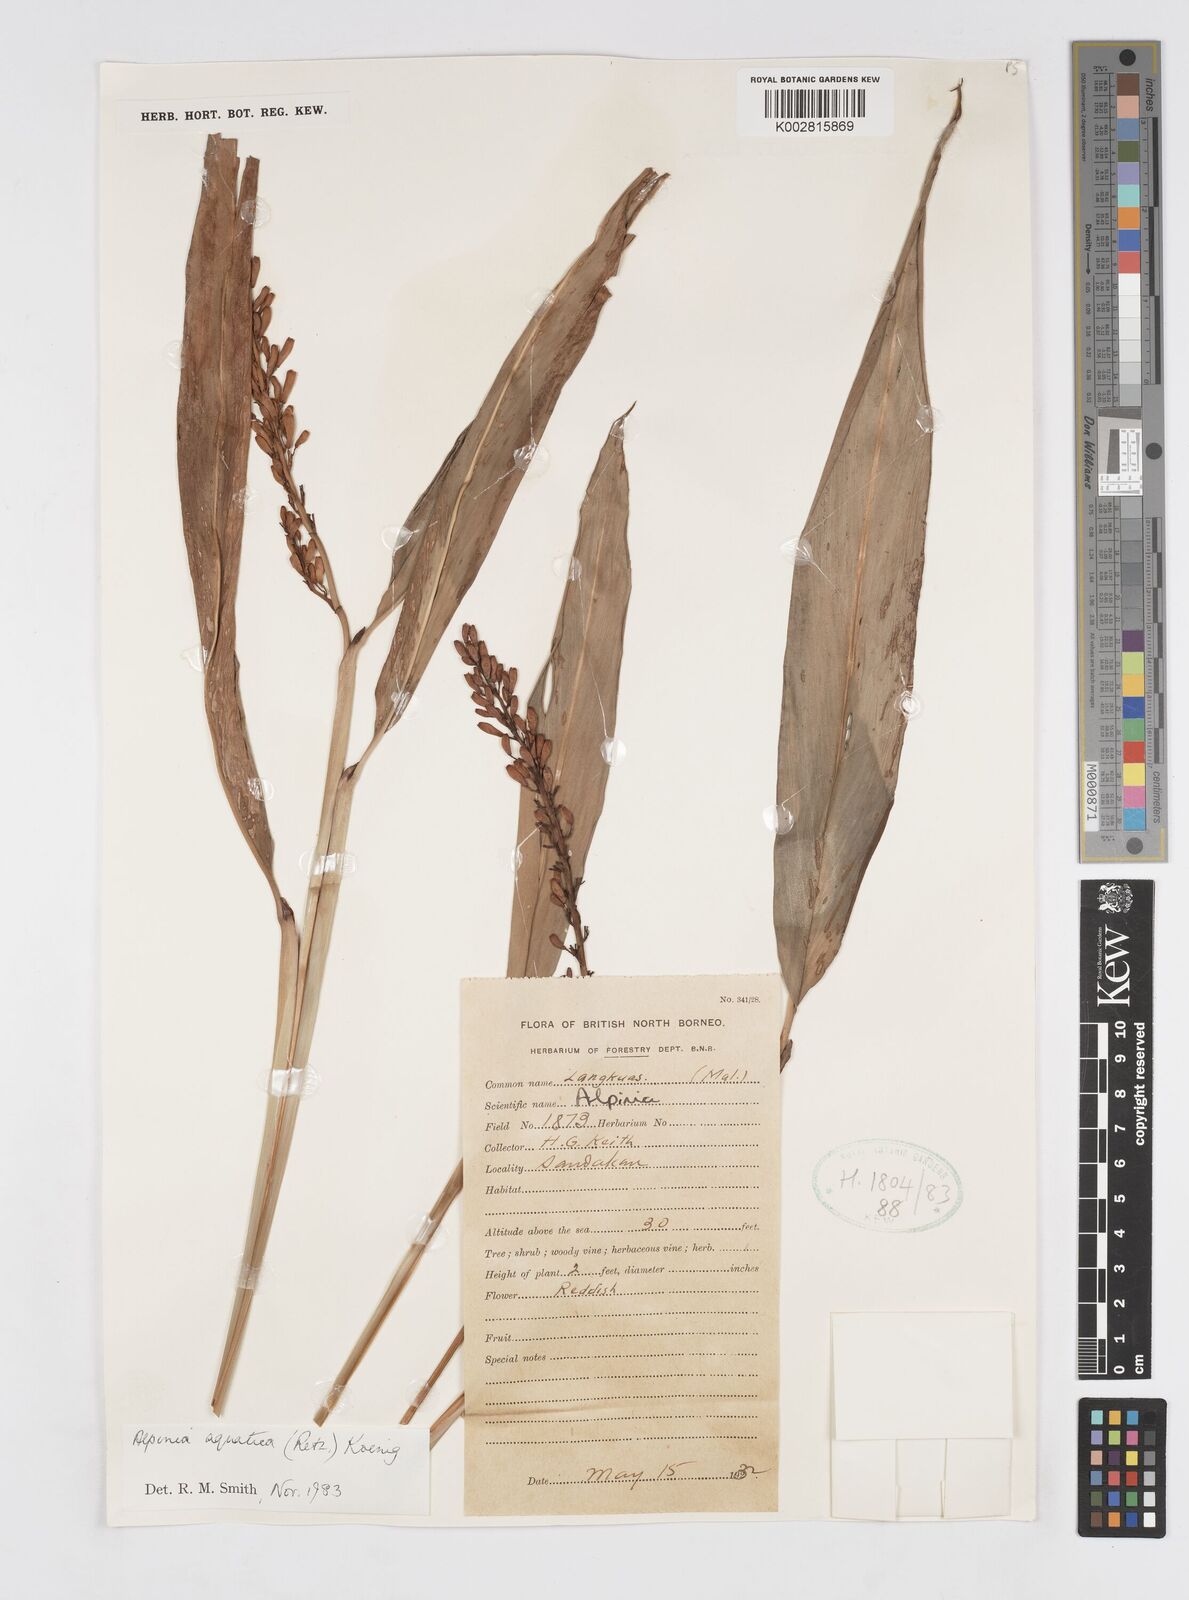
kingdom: Plantae
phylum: Tracheophyta
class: Liliopsida
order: Zingiberales
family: Zingiberaceae
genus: Alpinia
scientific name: Alpinia aquatica
